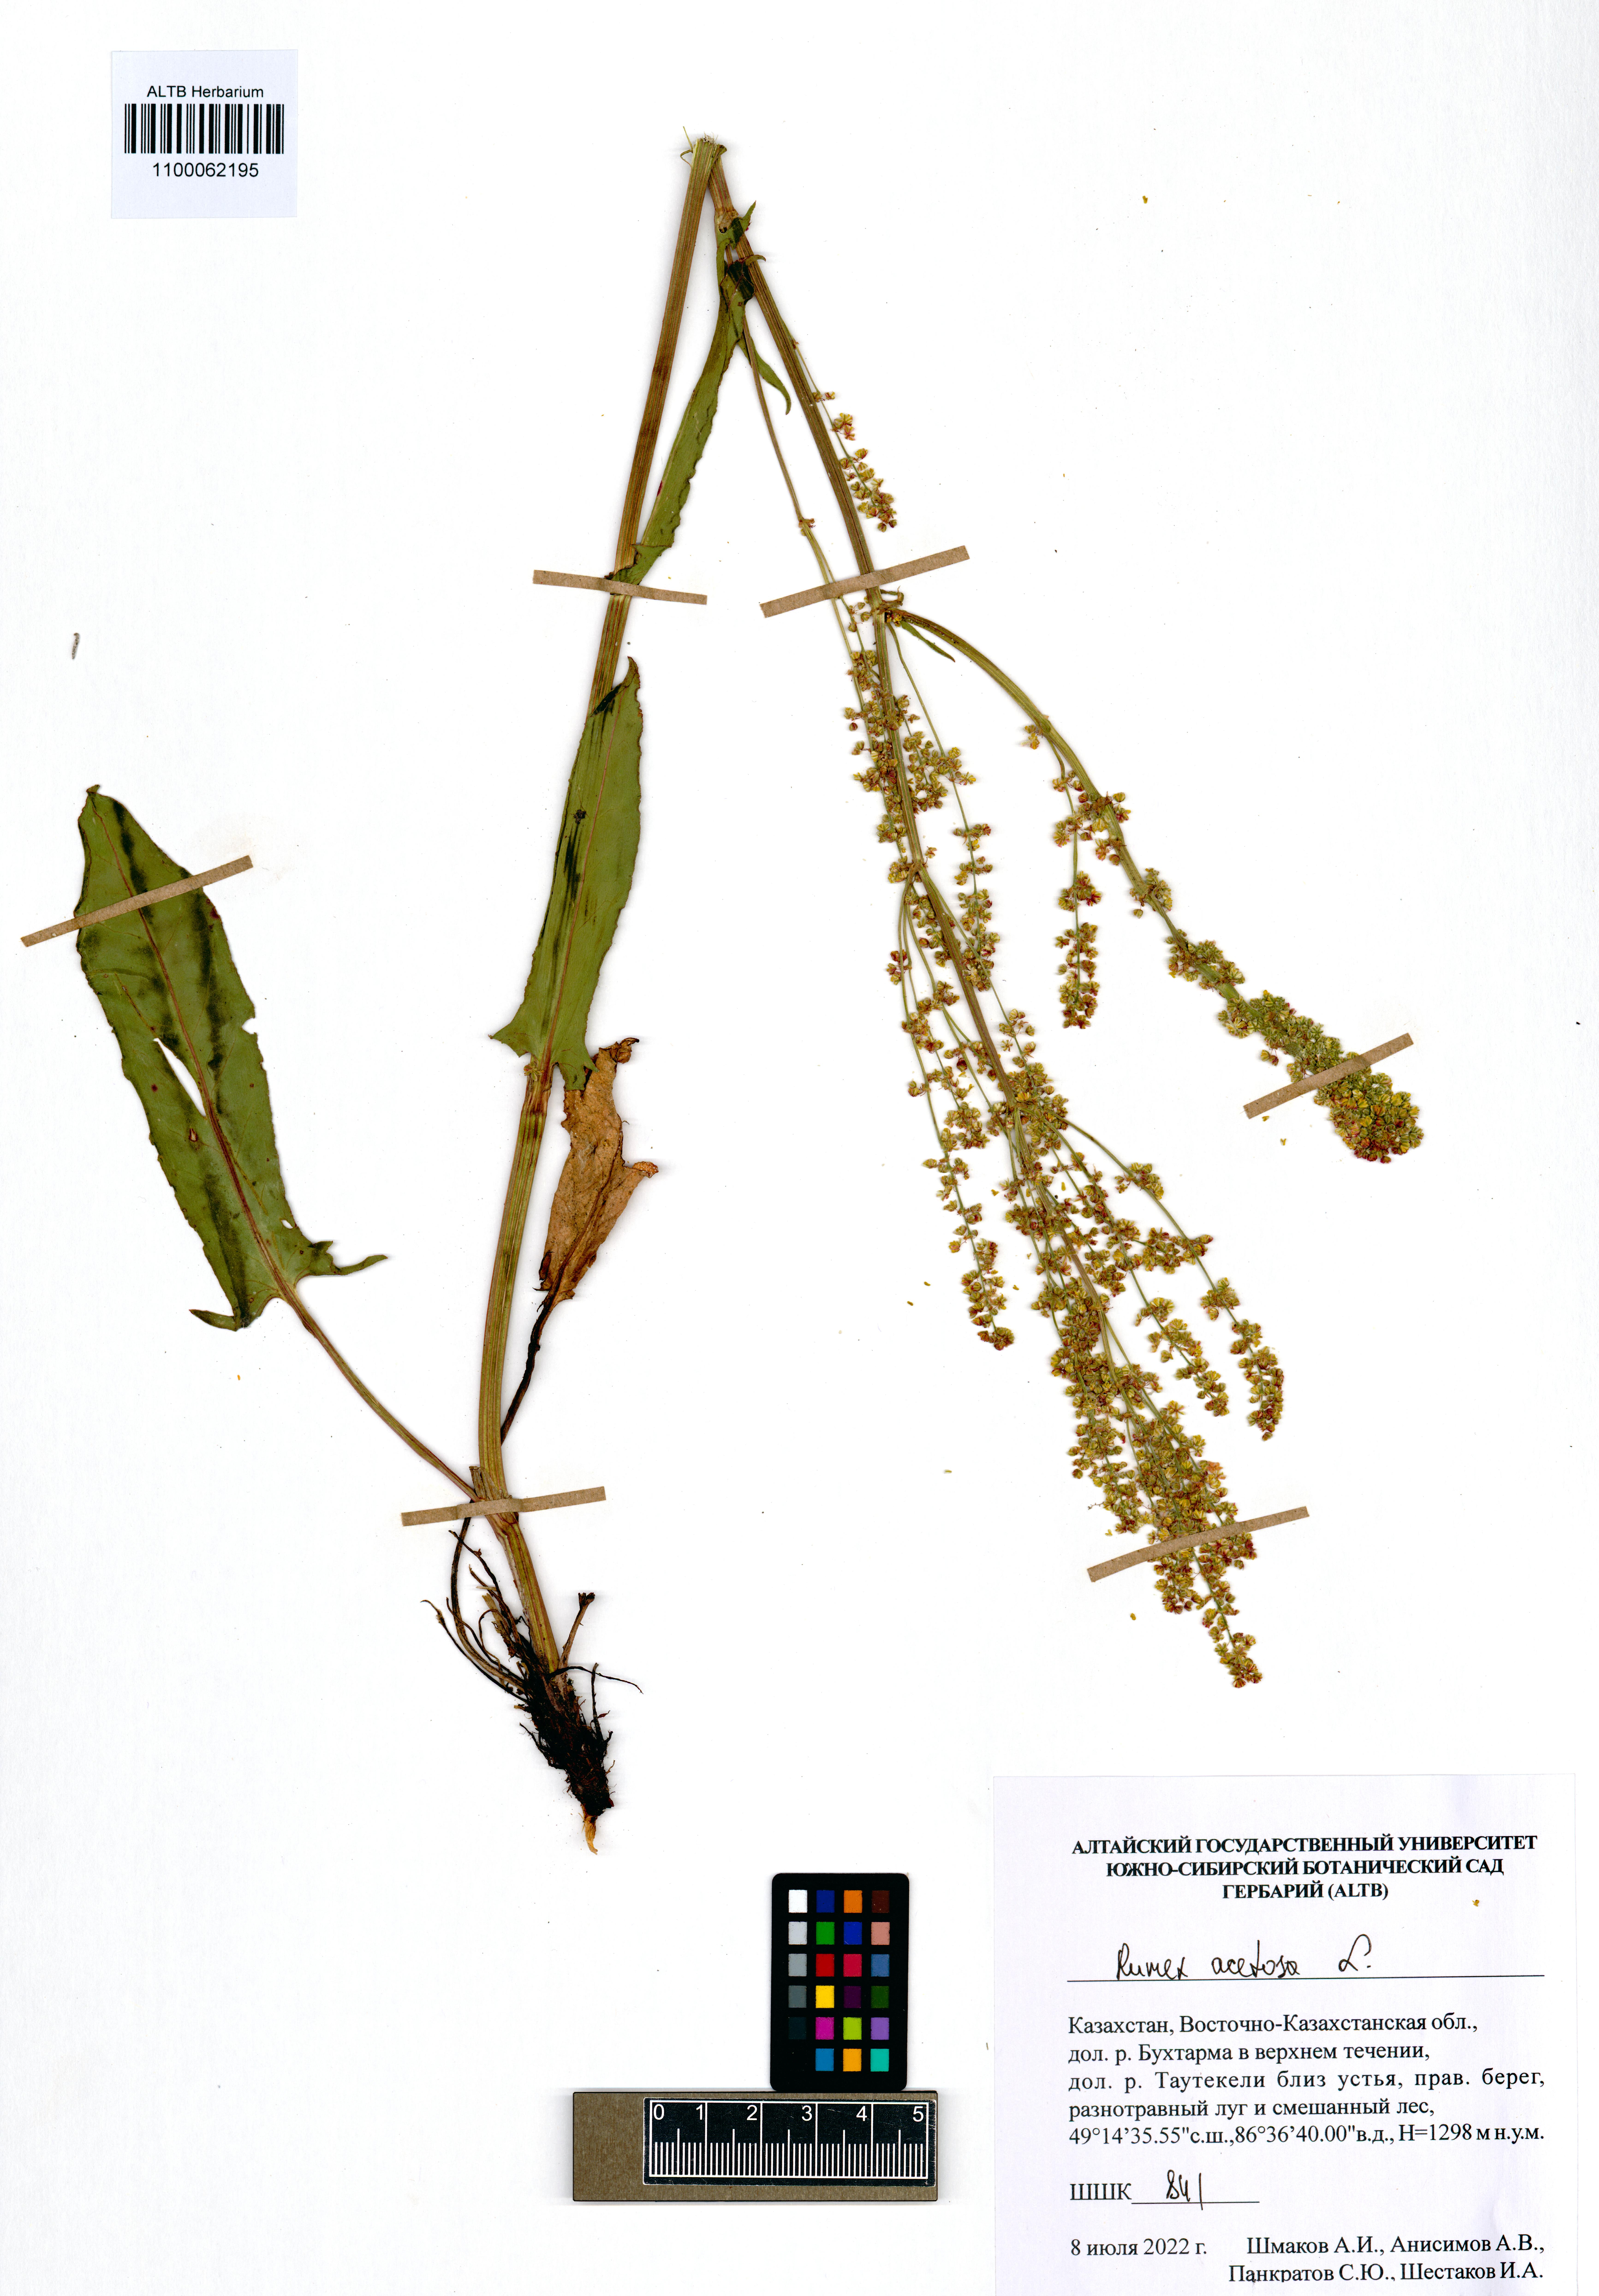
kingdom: Plantae
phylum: Tracheophyta
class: Magnoliopsida
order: Caryophyllales
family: Polygonaceae
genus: Rumex
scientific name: Rumex acetosa
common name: Garden sorrel
